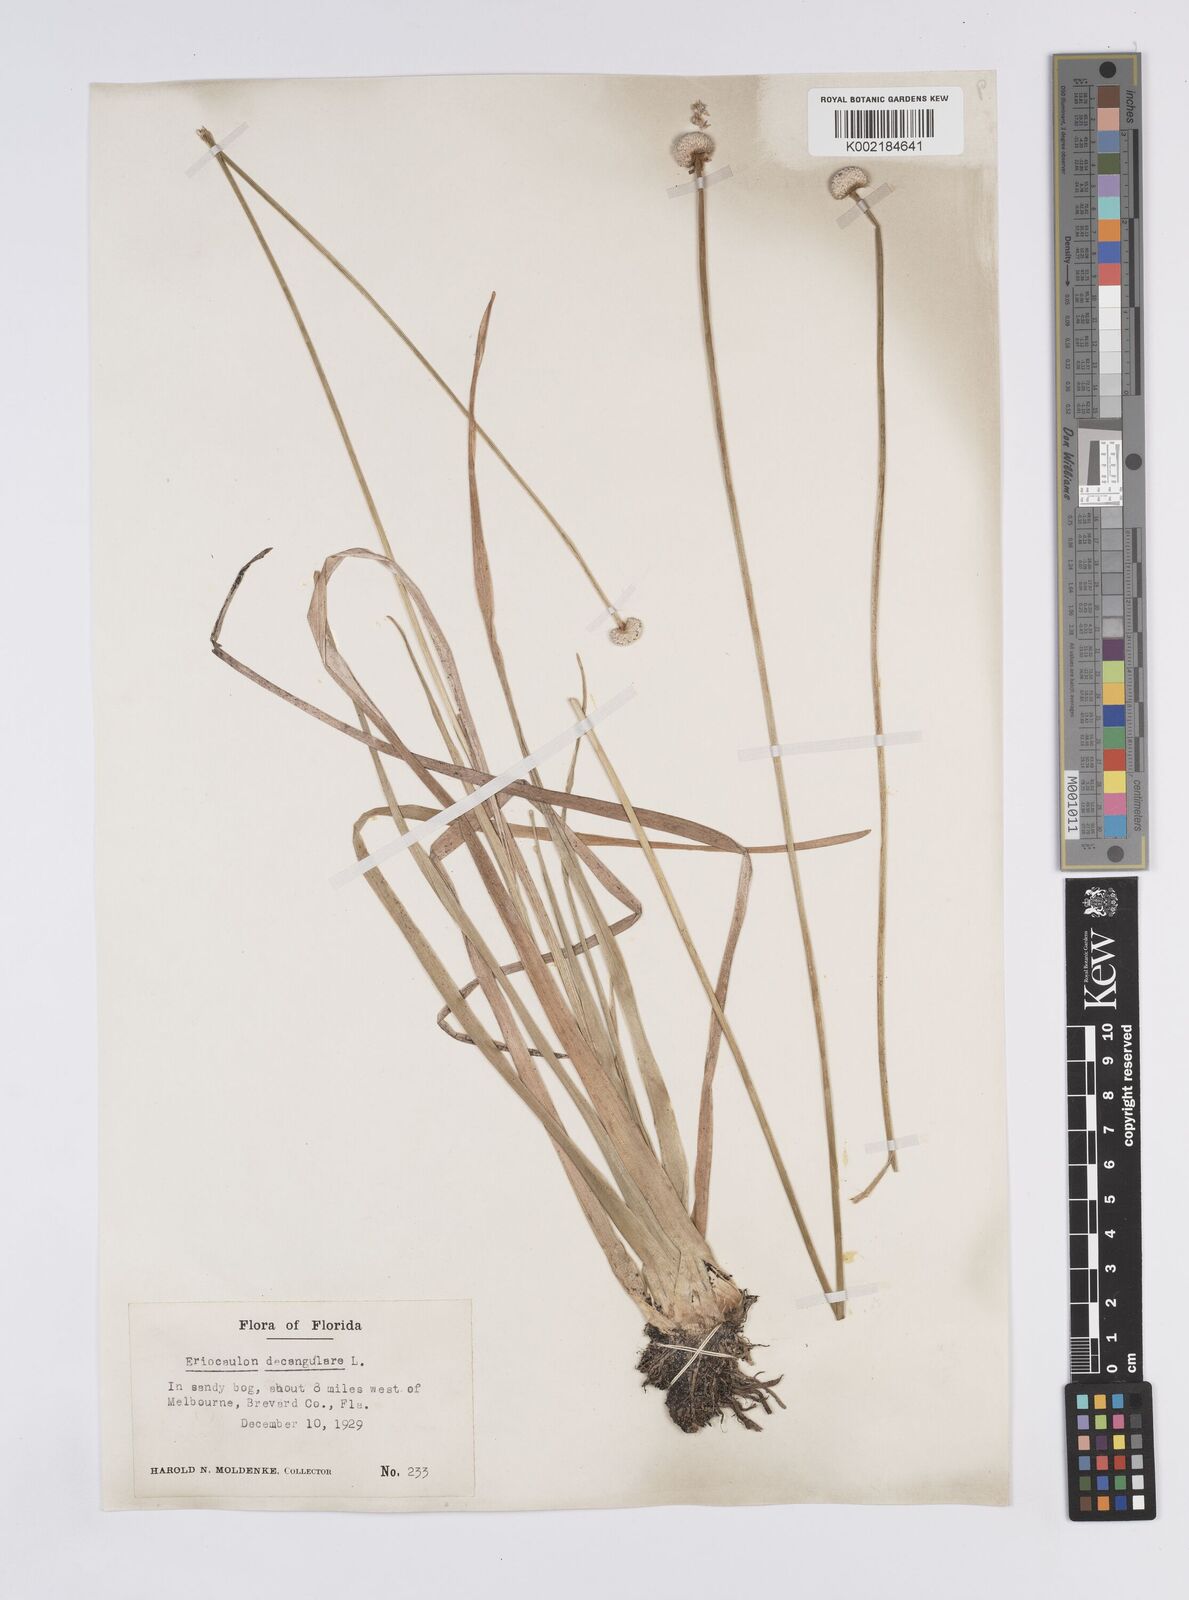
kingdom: Plantae
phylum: Tracheophyta
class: Liliopsida
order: Poales
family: Eriocaulaceae
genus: Eriocaulon
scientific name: Eriocaulon decangulare
